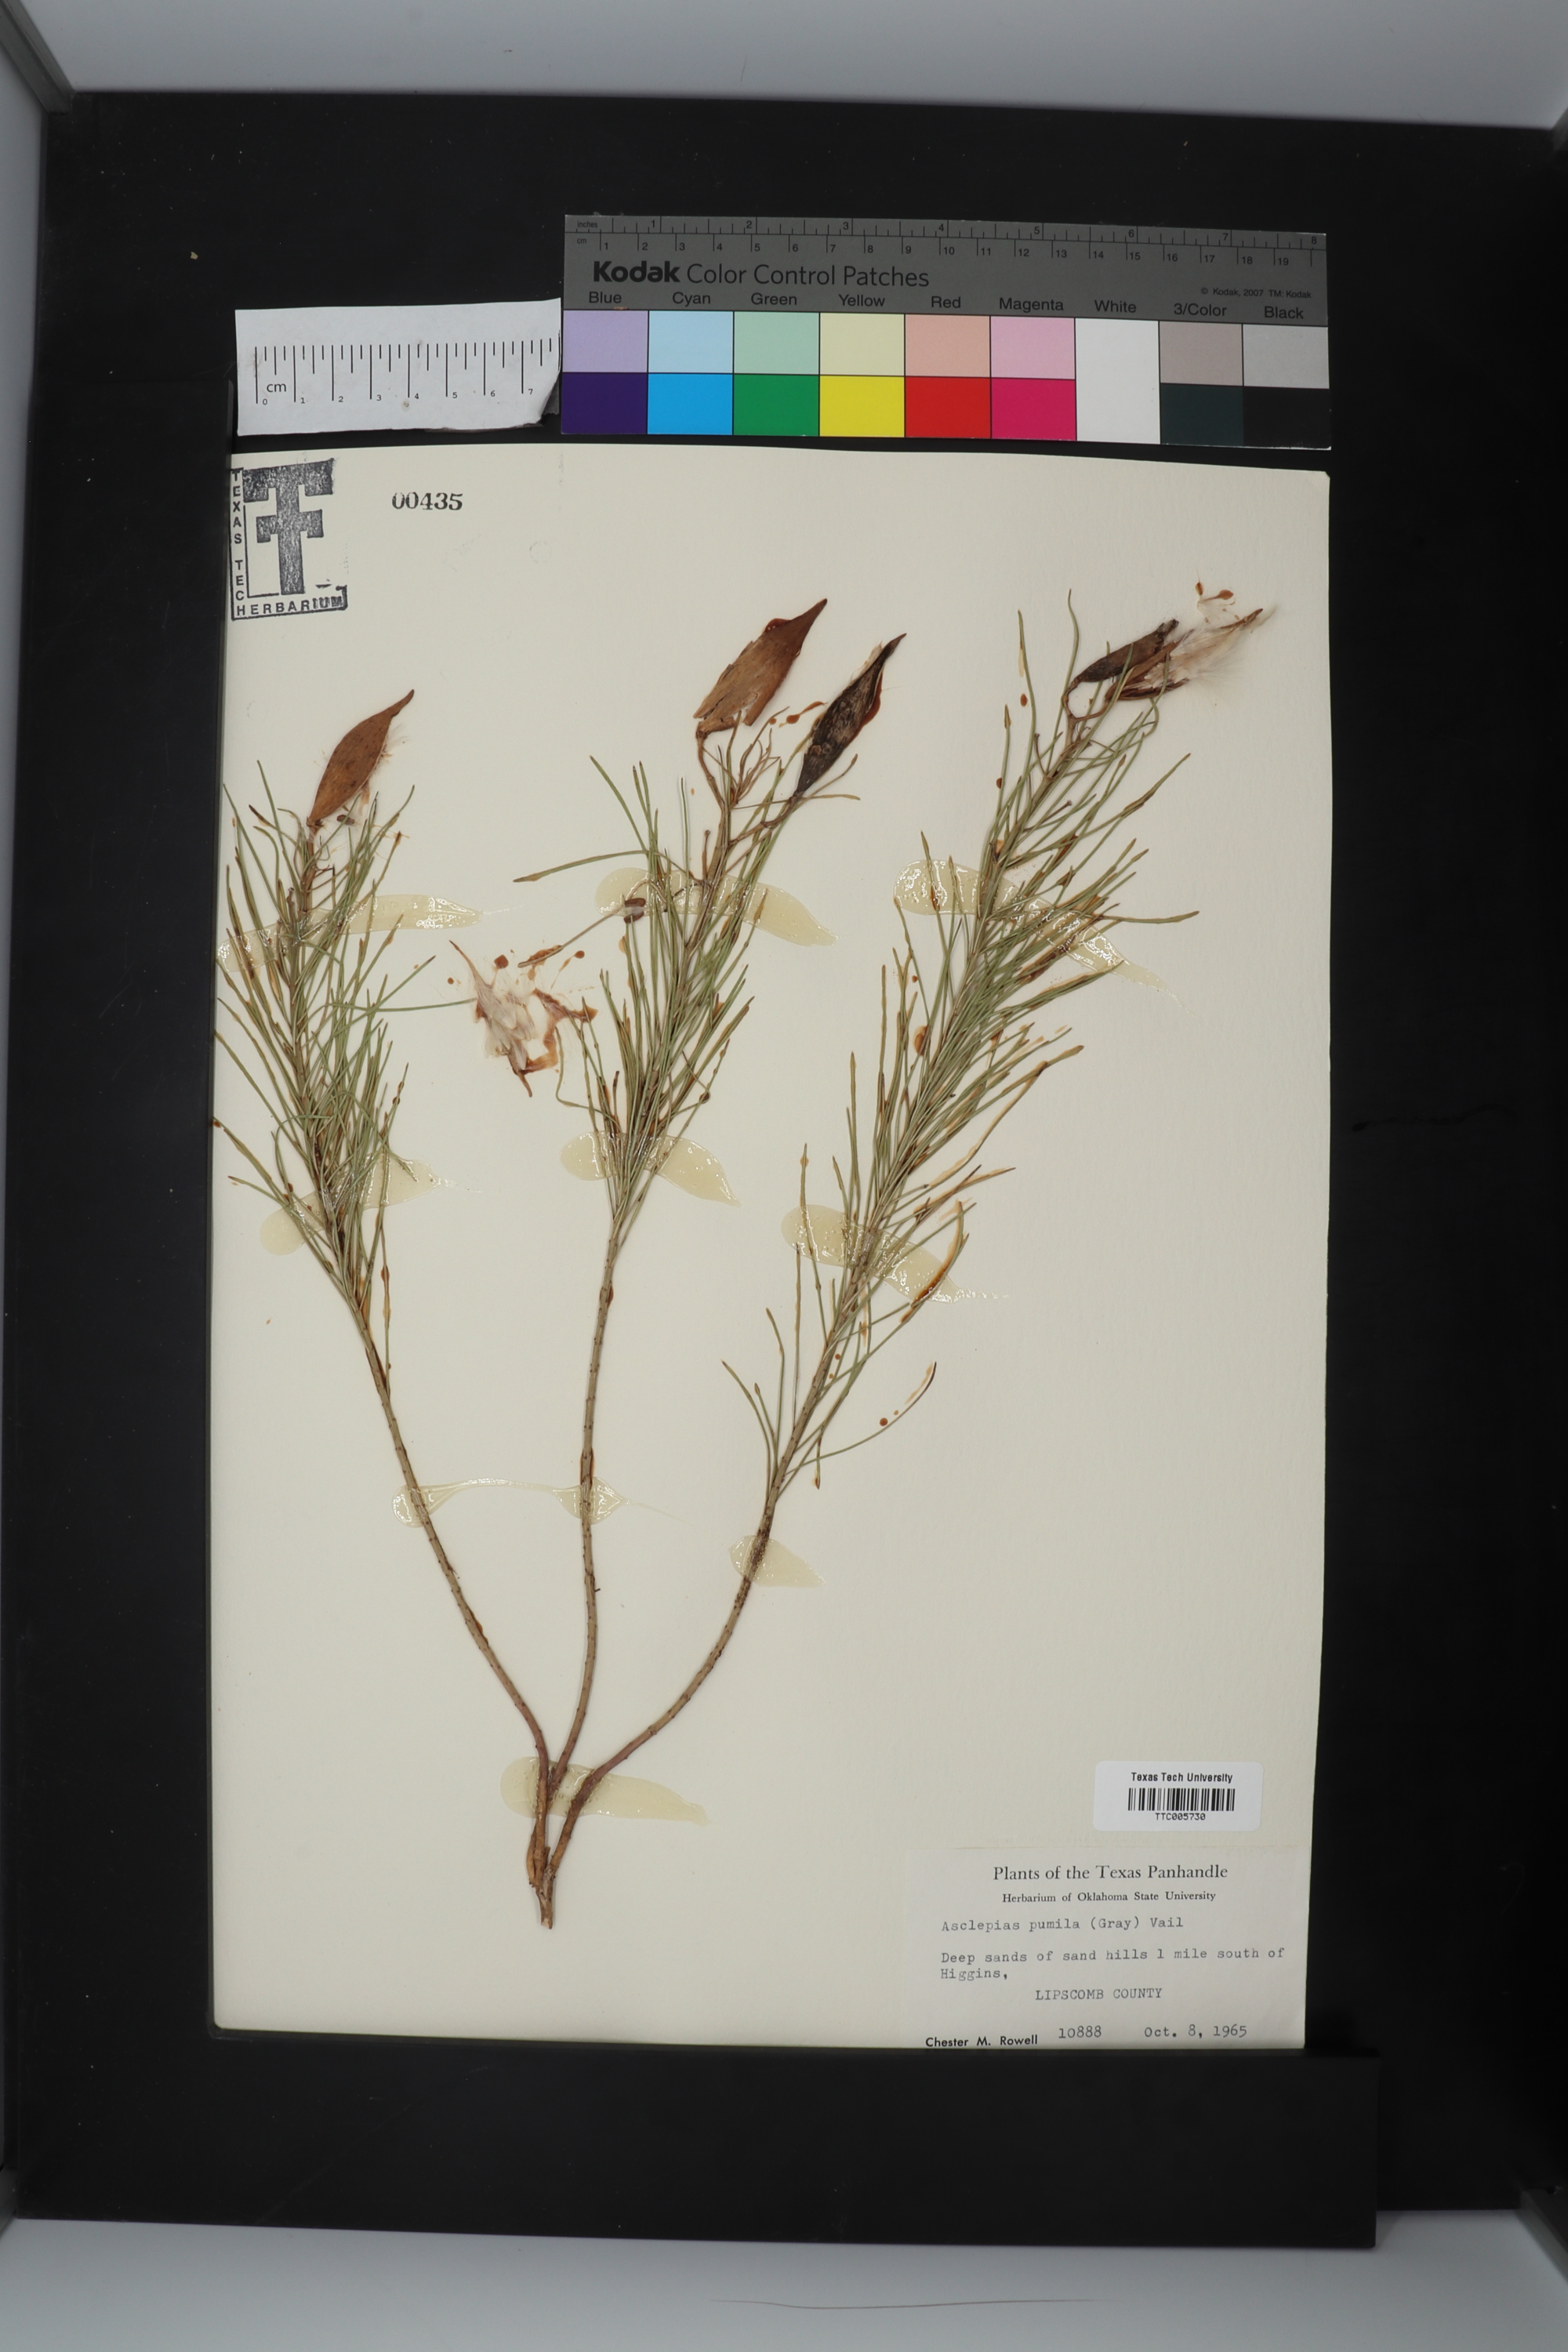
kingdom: Plantae
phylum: Tracheophyta
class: Magnoliopsida
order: Gentianales
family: Apocynaceae
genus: Asclepias
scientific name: Asclepias pumila
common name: Dwarf milkweed
